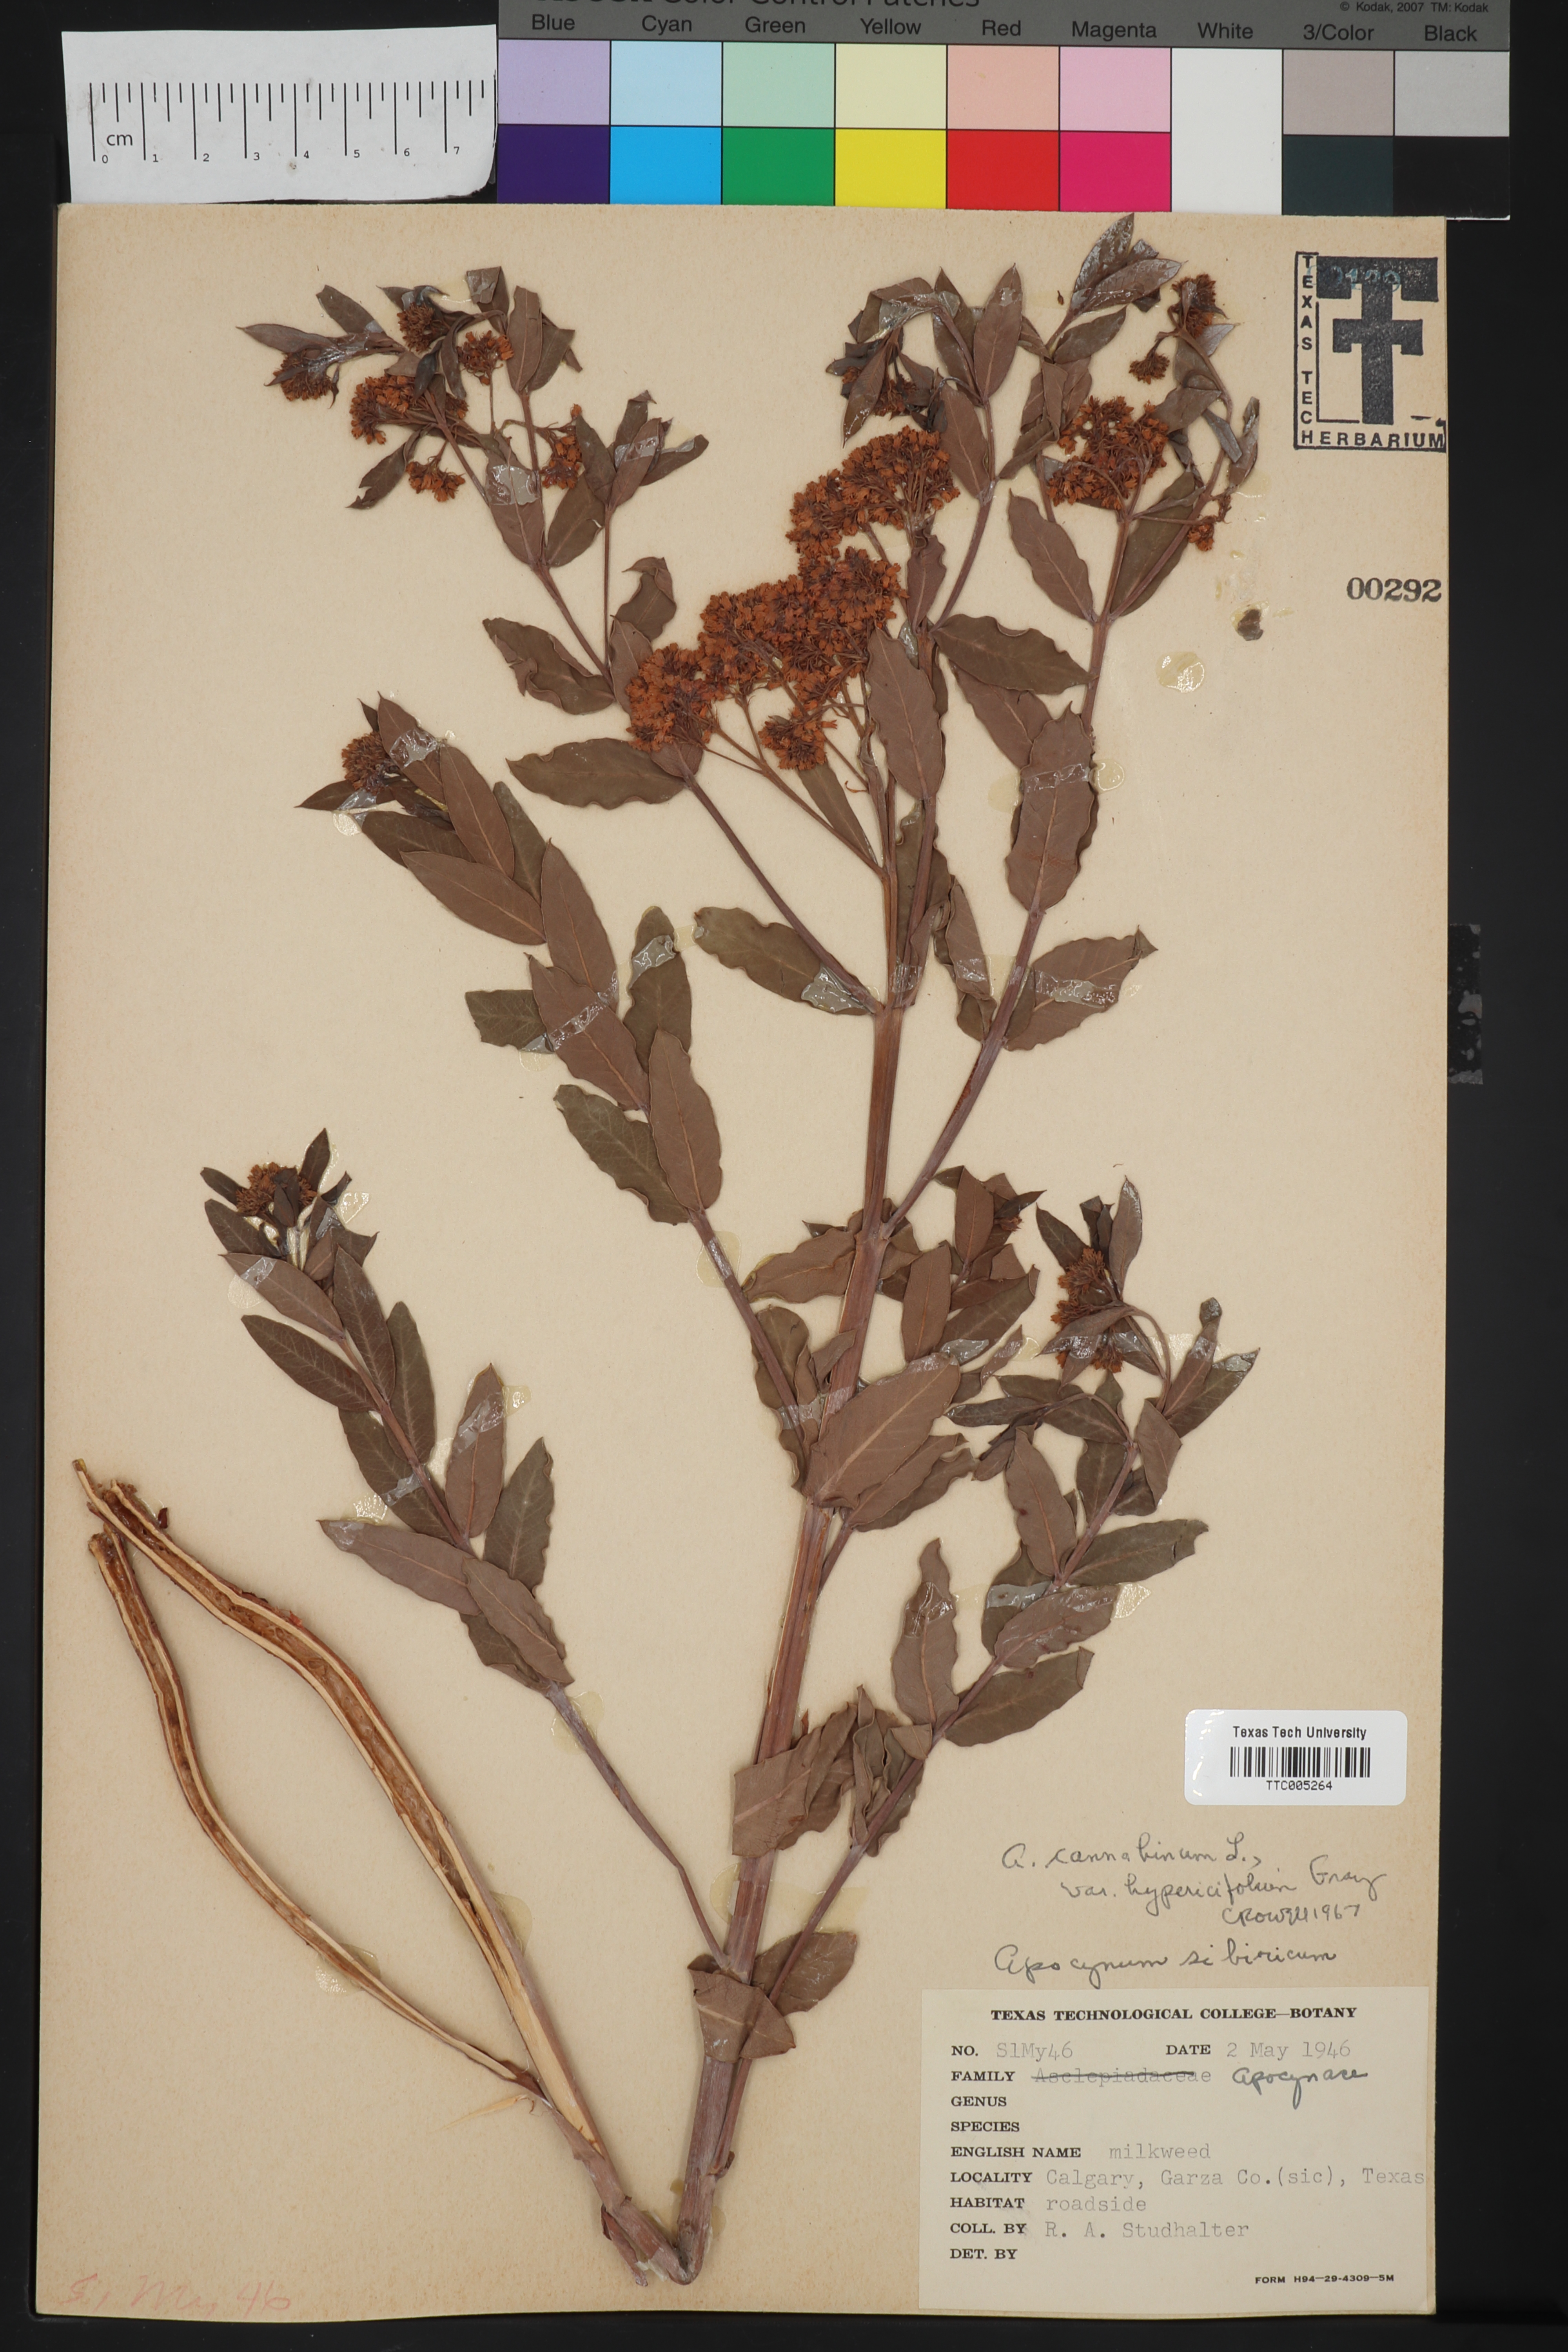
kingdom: Plantae
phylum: Tracheophyta
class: Magnoliopsida
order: Gentianales
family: Apocynaceae
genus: Apocynum
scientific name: Apocynum cannabinum
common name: Hemp dogbane
